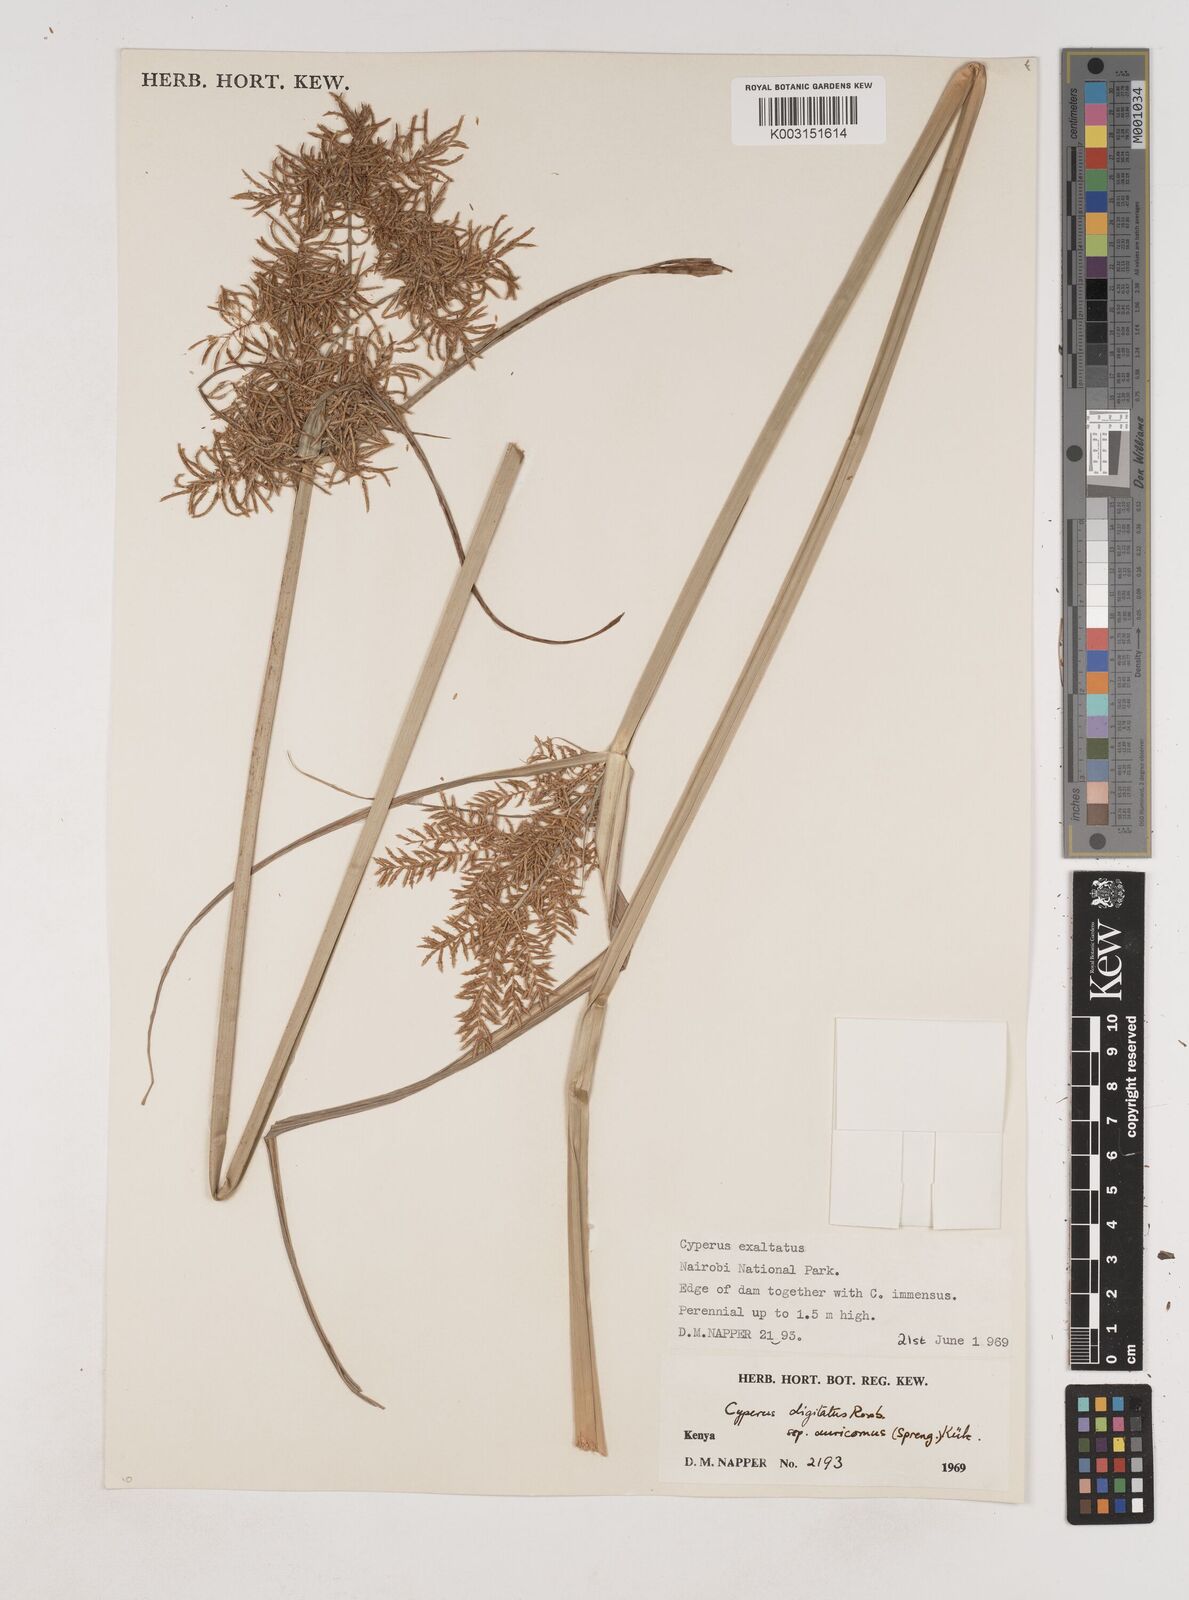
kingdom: Plantae
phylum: Tracheophyta
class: Liliopsida
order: Poales
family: Cyperaceae
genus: Cyperus
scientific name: Cyperus digitatus
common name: Finger flatsedge
